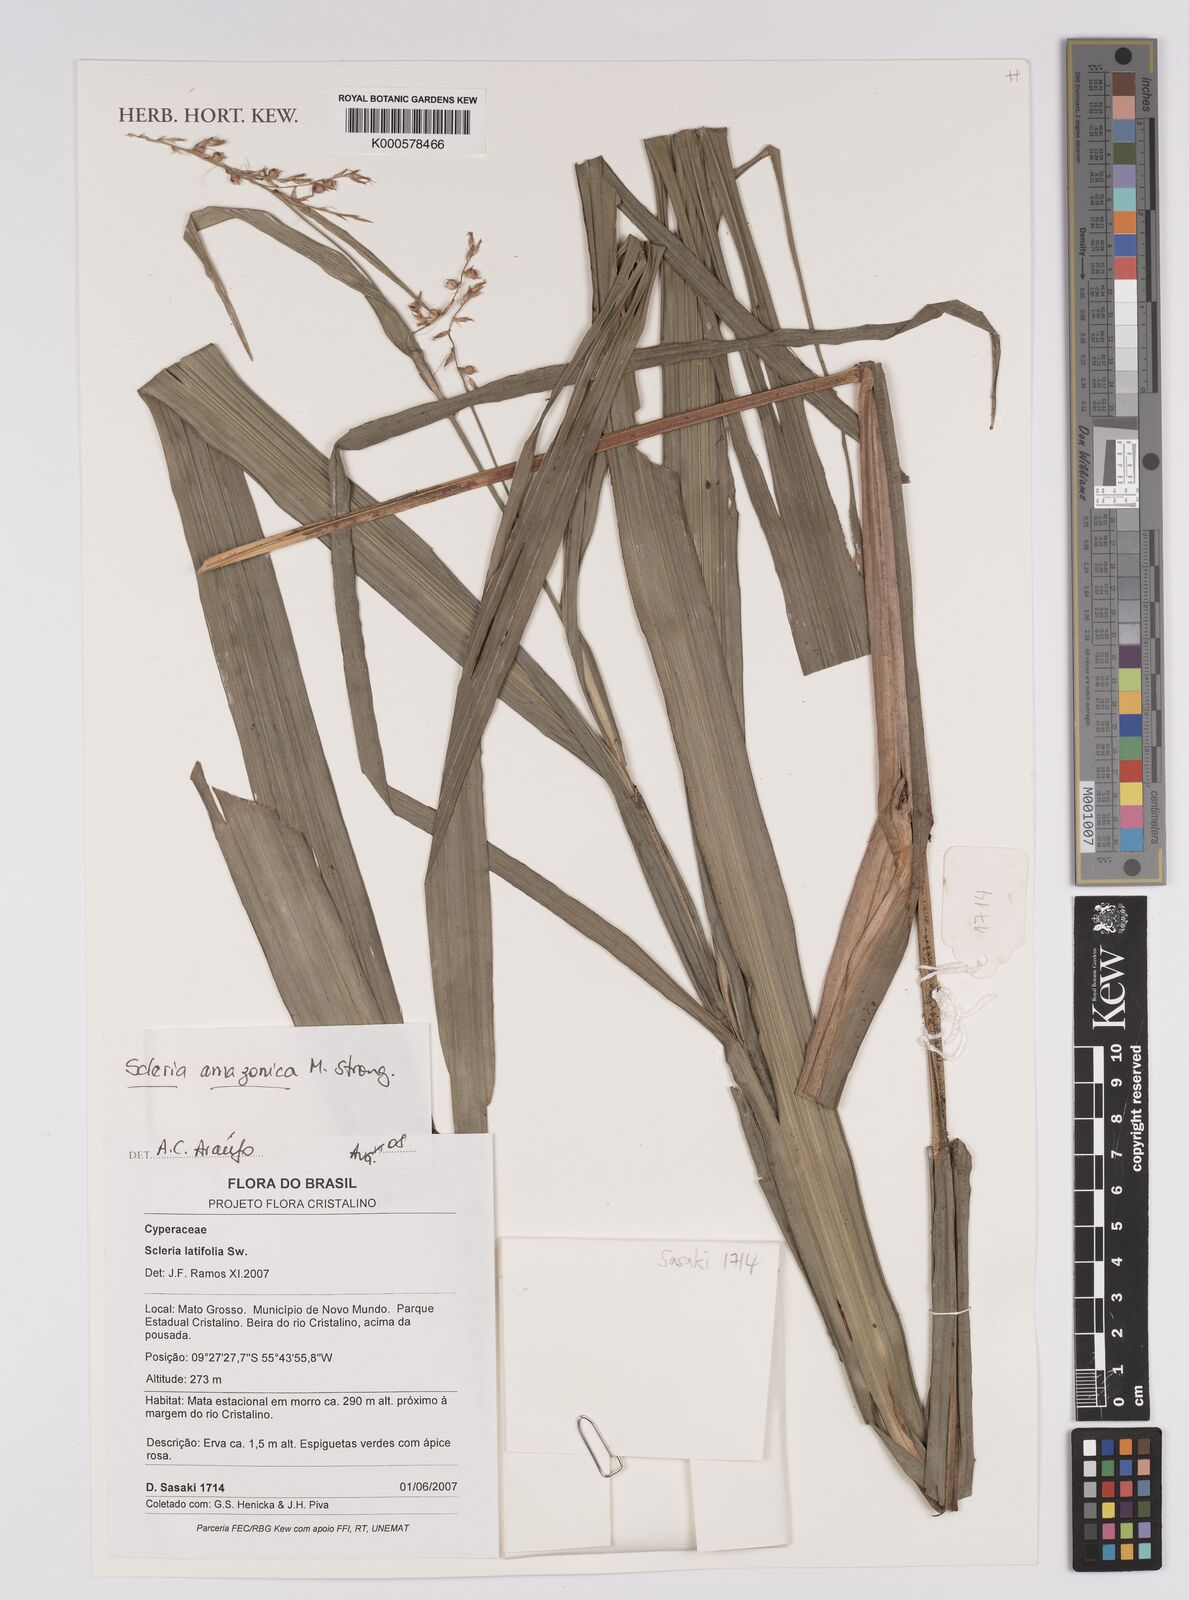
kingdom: Plantae
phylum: Tracheophyta
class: Liliopsida
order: Poales
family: Cyperaceae
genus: Scleria
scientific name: Scleria
